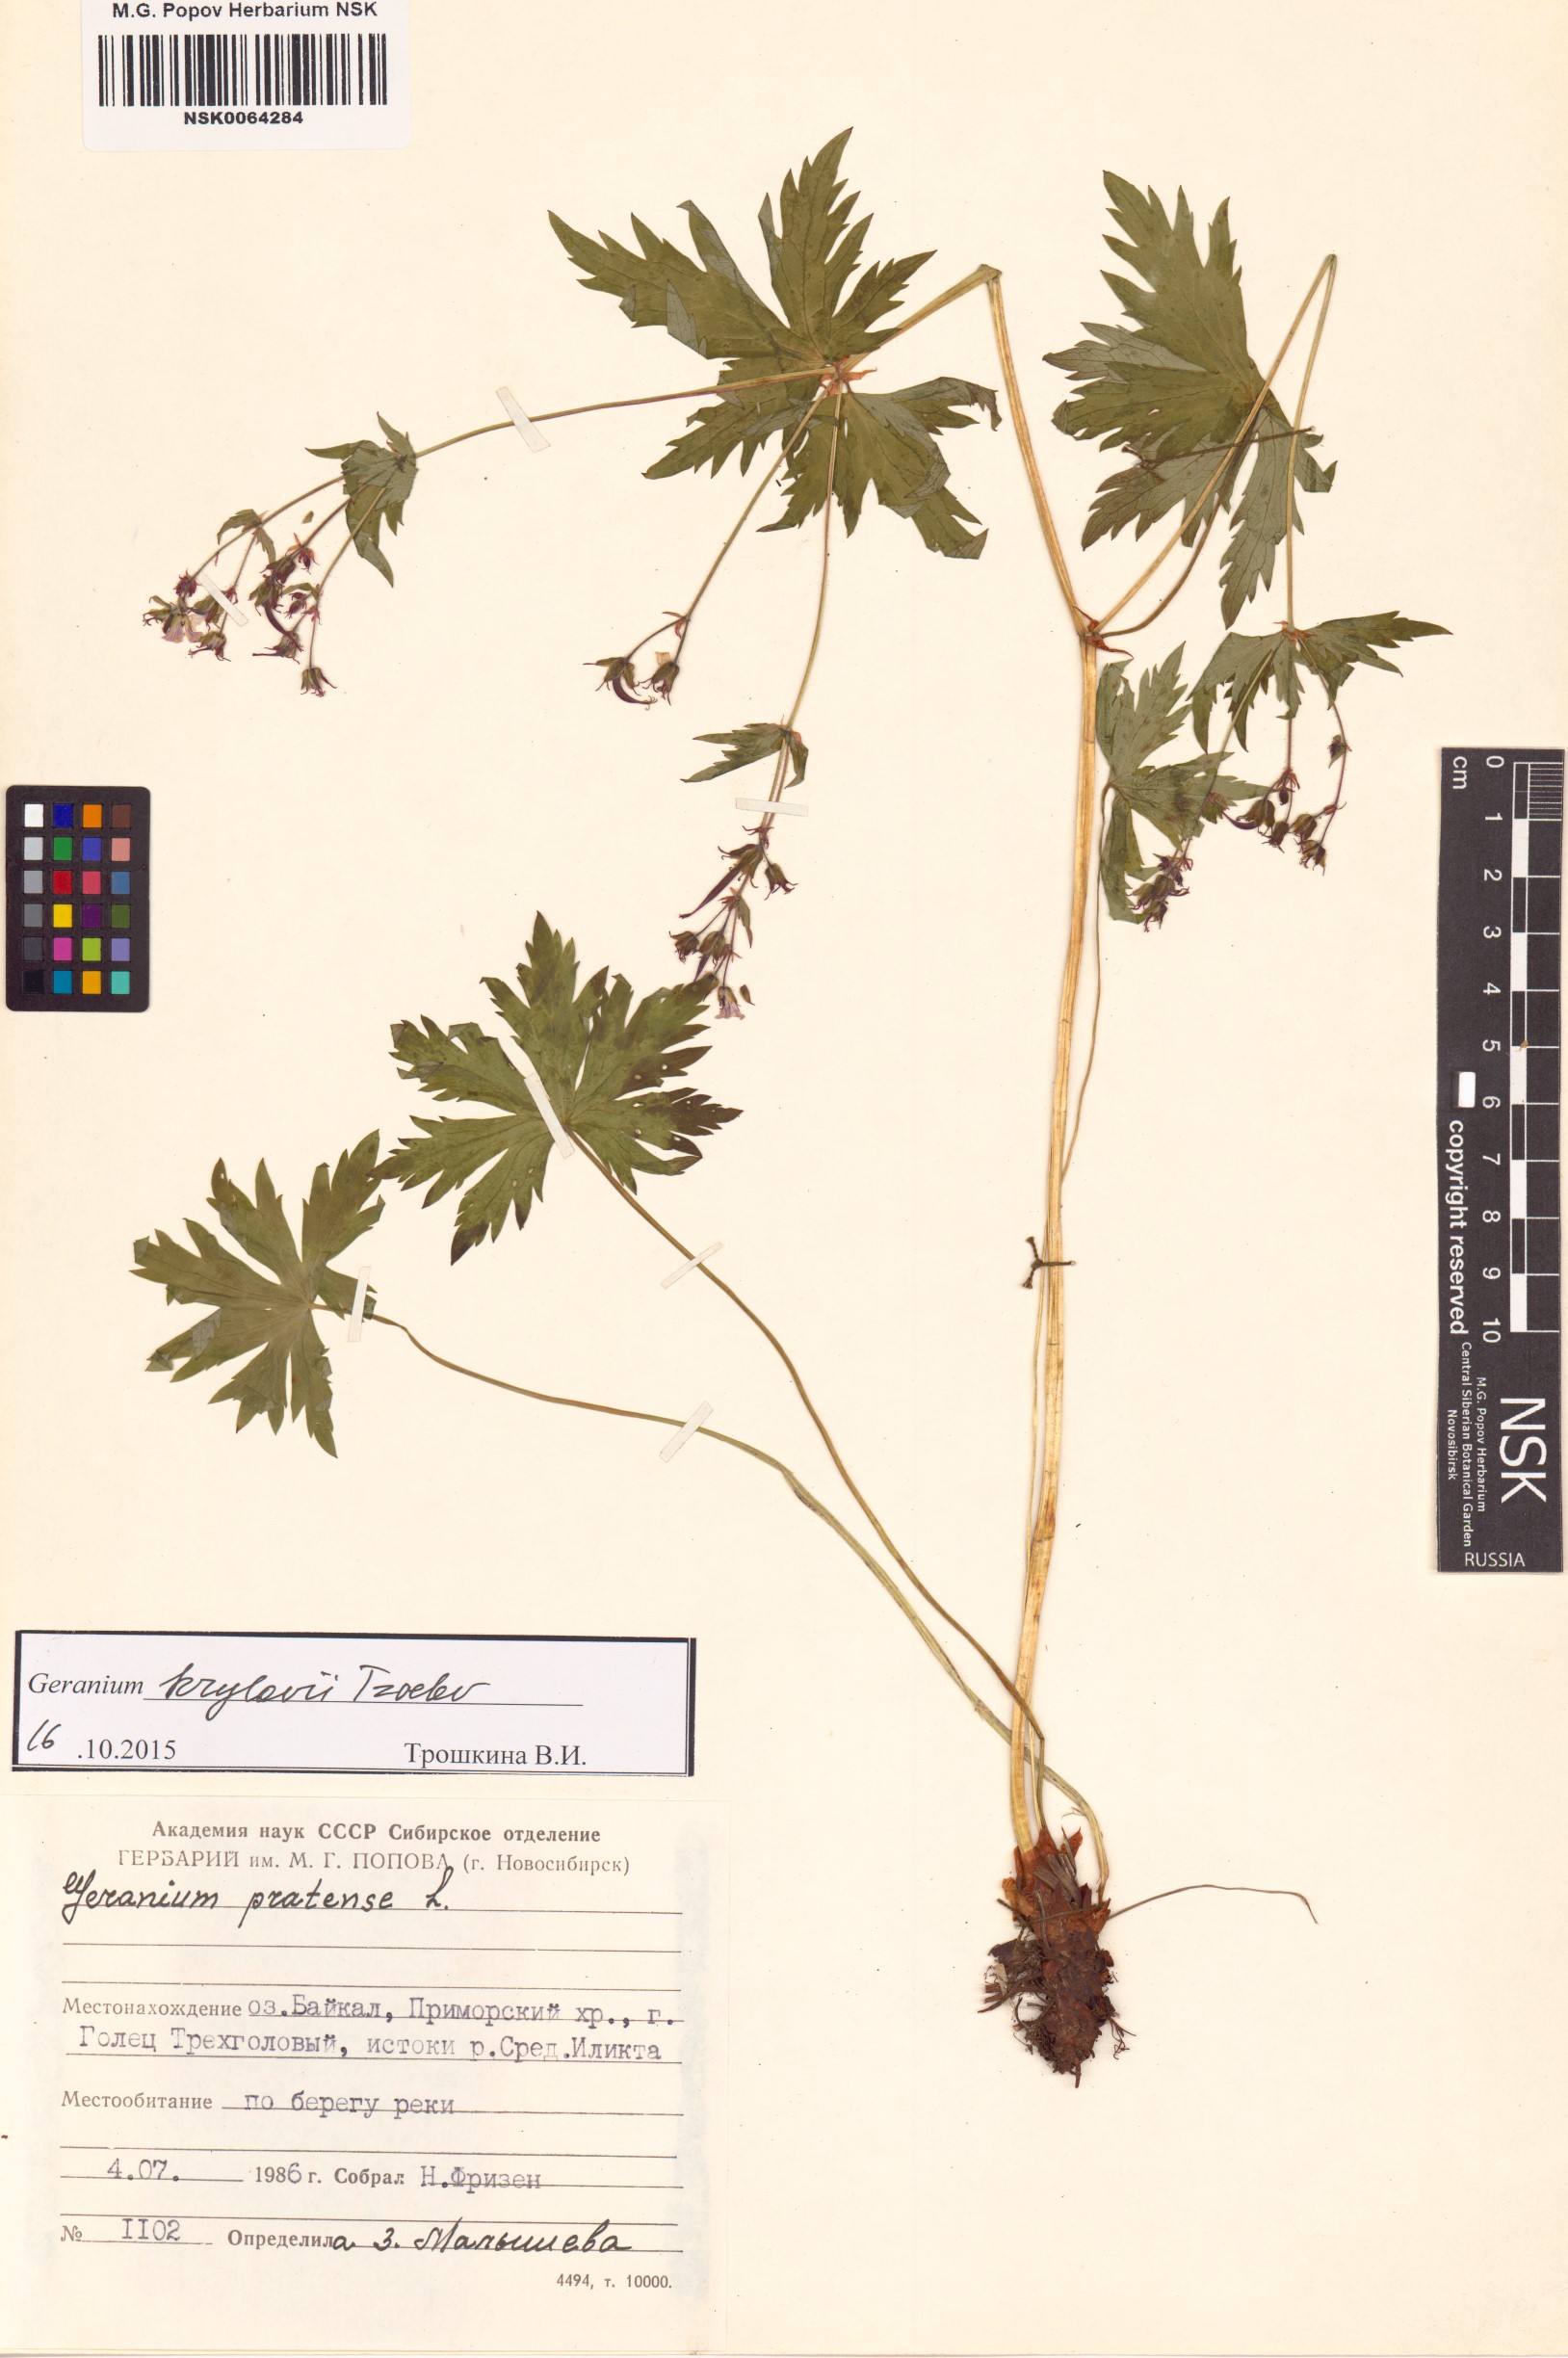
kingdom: Plantae
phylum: Tracheophyta
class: Magnoliopsida
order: Geraniales
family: Geraniaceae
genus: Geranium
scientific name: Geranium sylvaticum
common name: Wood crane's-bill
